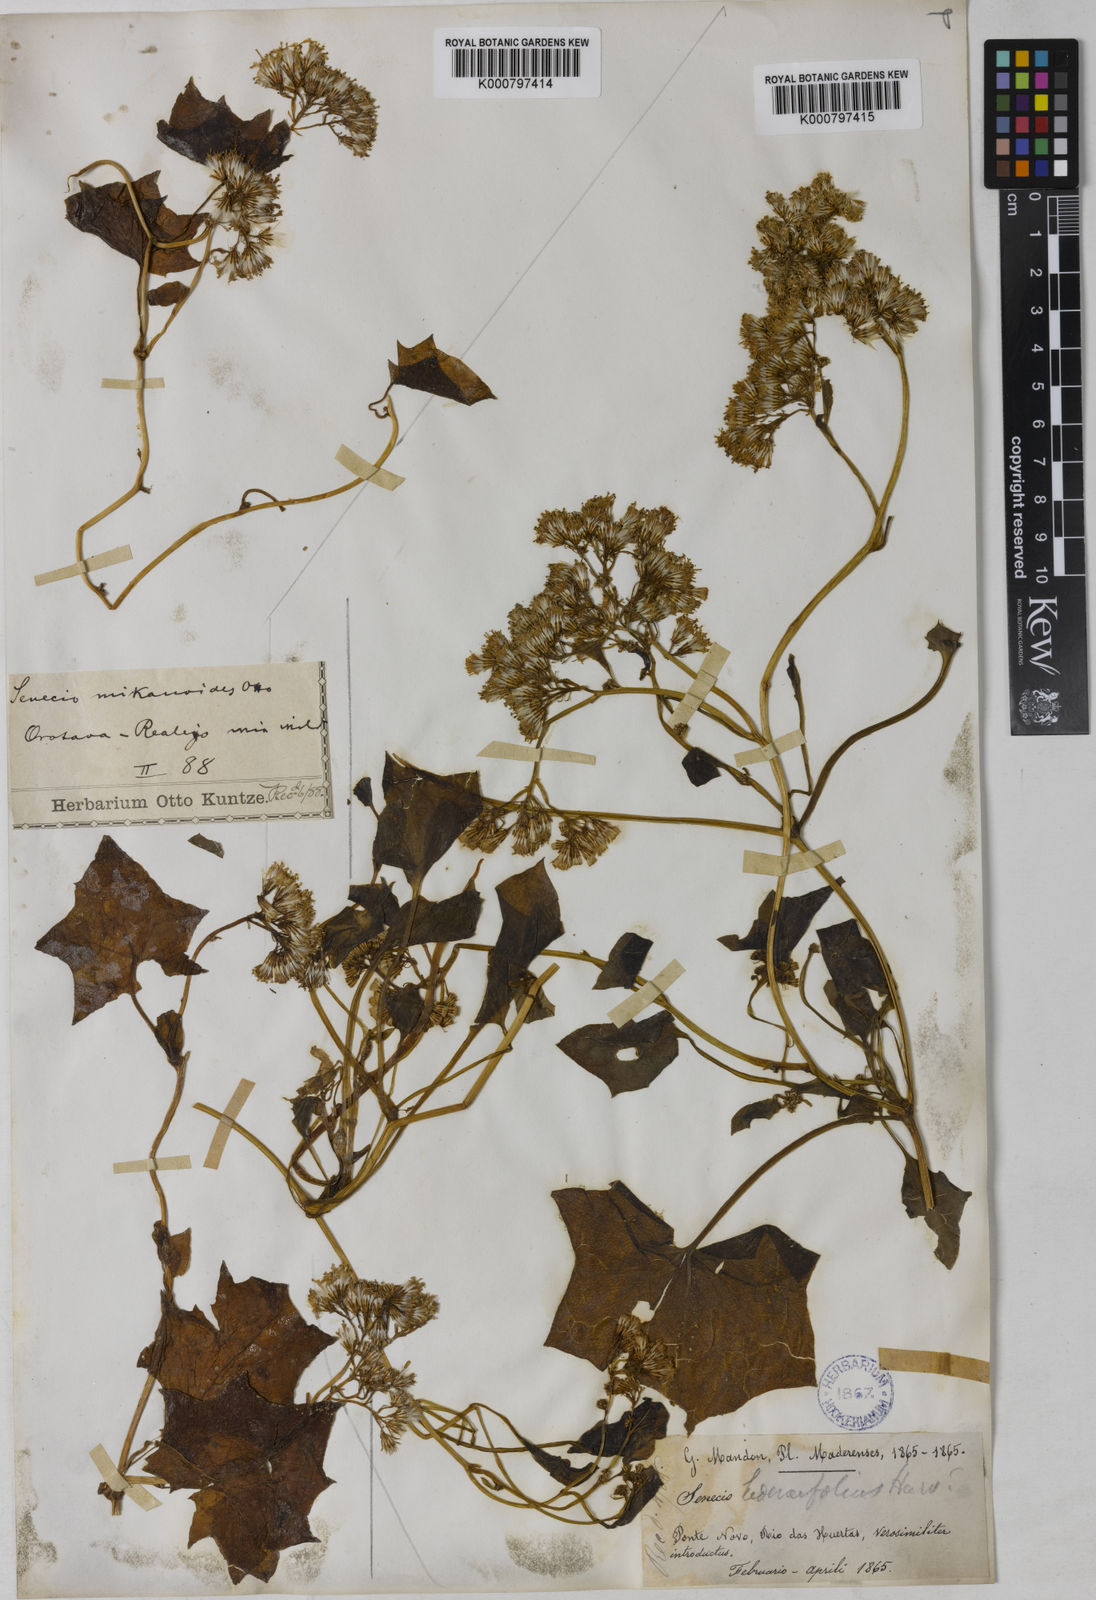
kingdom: Plantae
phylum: Tracheophyta
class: Magnoliopsida
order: Asterales
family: Asteraceae
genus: Delairea
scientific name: Delairea odorata
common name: Cape-ivy
